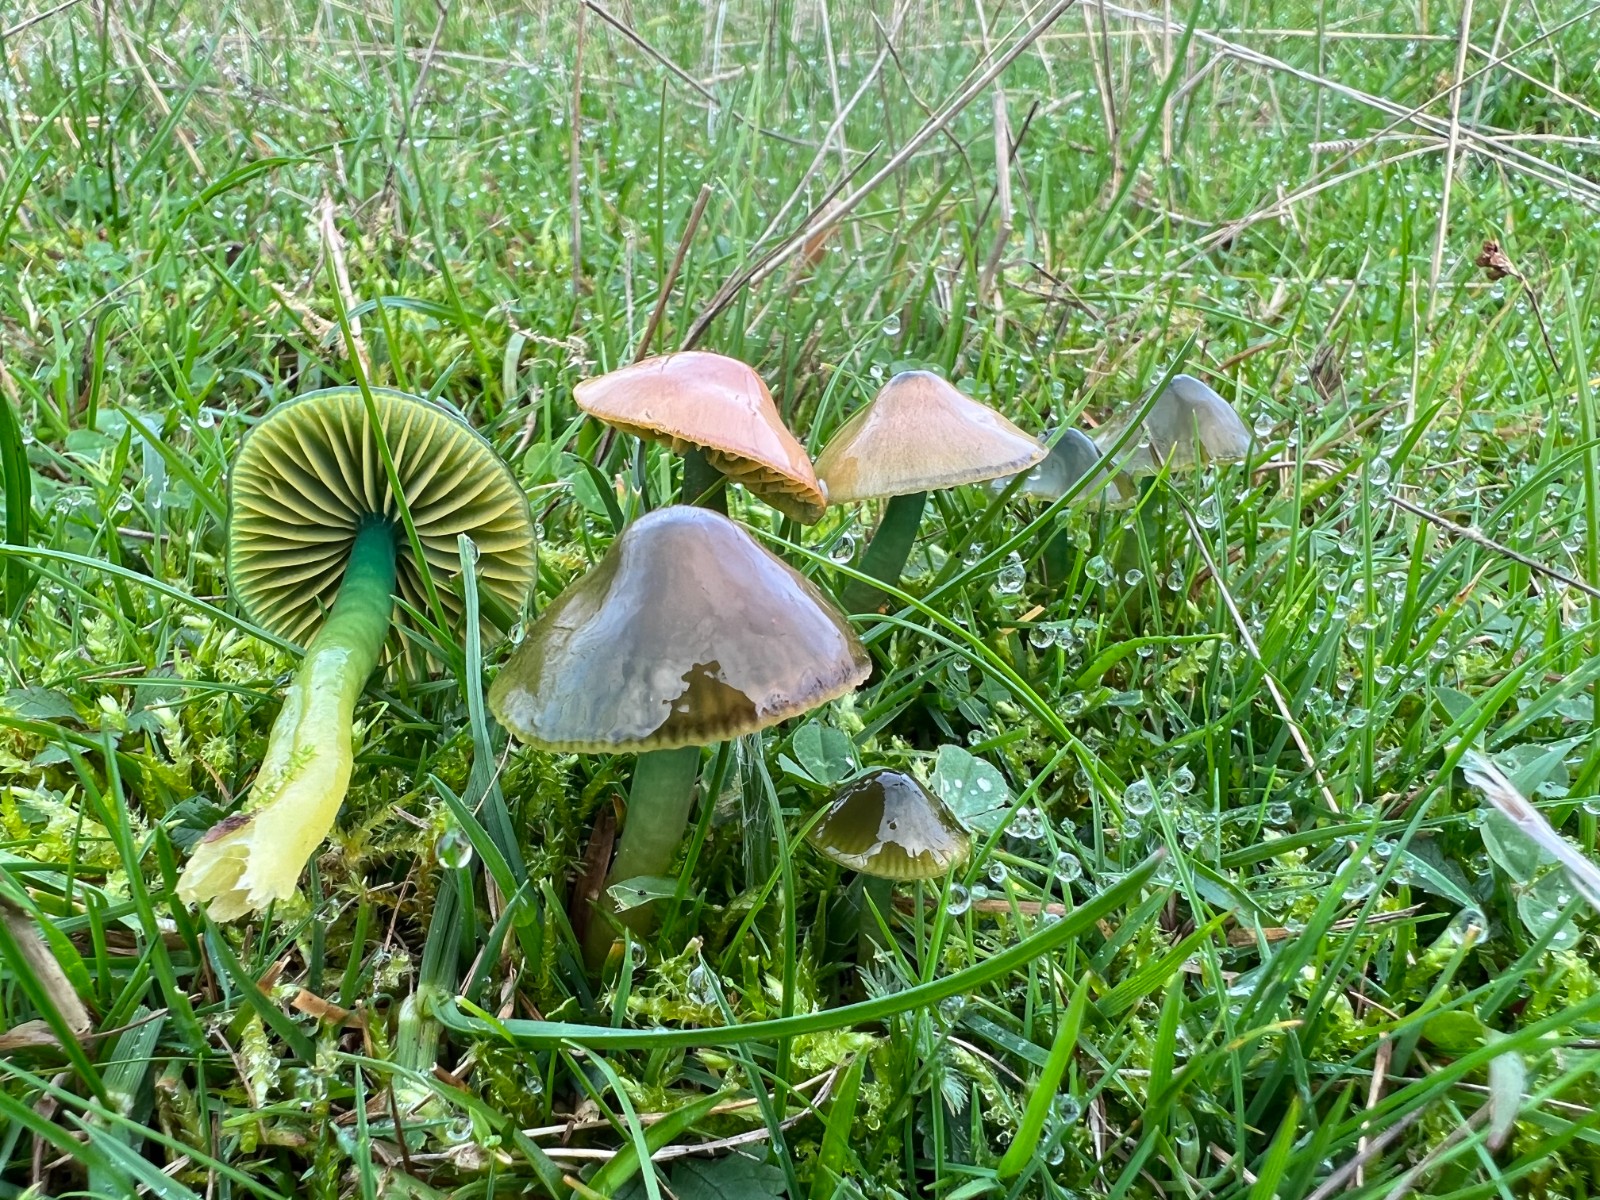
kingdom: Fungi
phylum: Basidiomycota
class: Agaricomycetes
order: Agaricales
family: Hygrophoraceae
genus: Gliophorus
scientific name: Gliophorus psittacinus
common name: papegøje-vokshat
